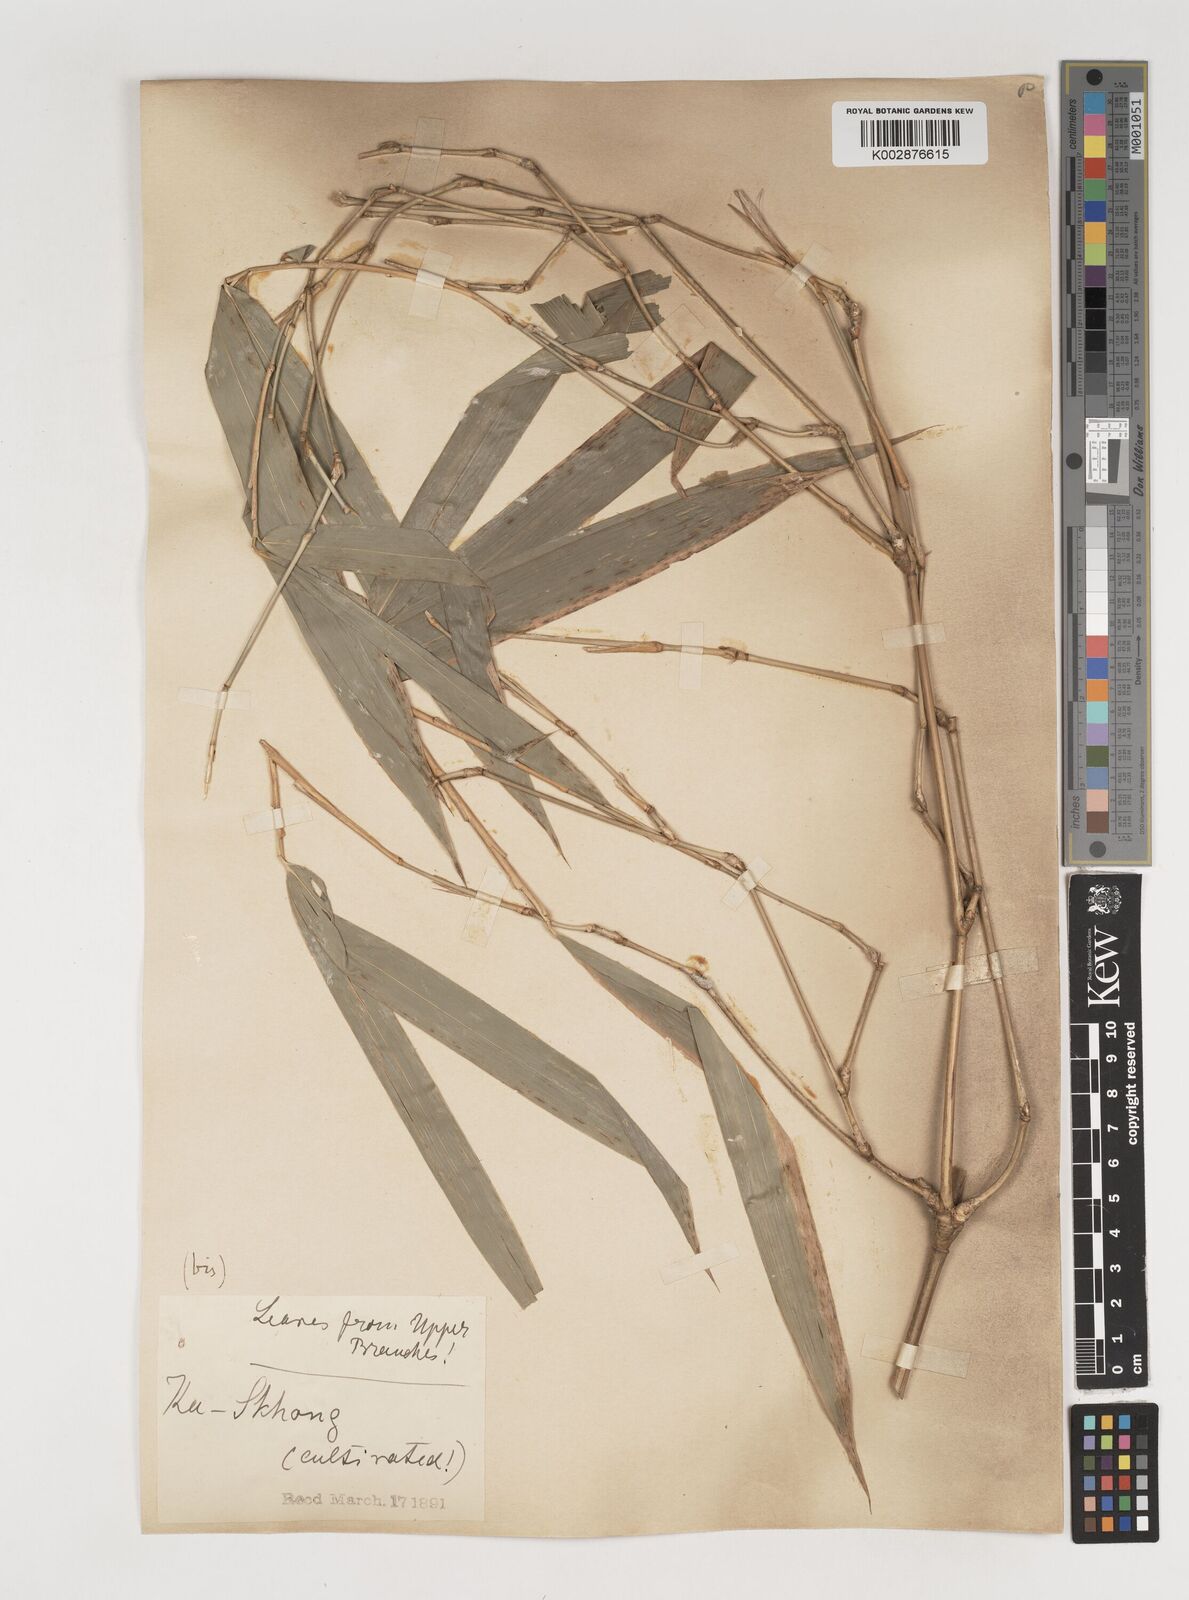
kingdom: Plantae
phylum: Tracheophyta
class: Liliopsida
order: Poales
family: Poaceae
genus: Bambusa
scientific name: Bambusa nutans
